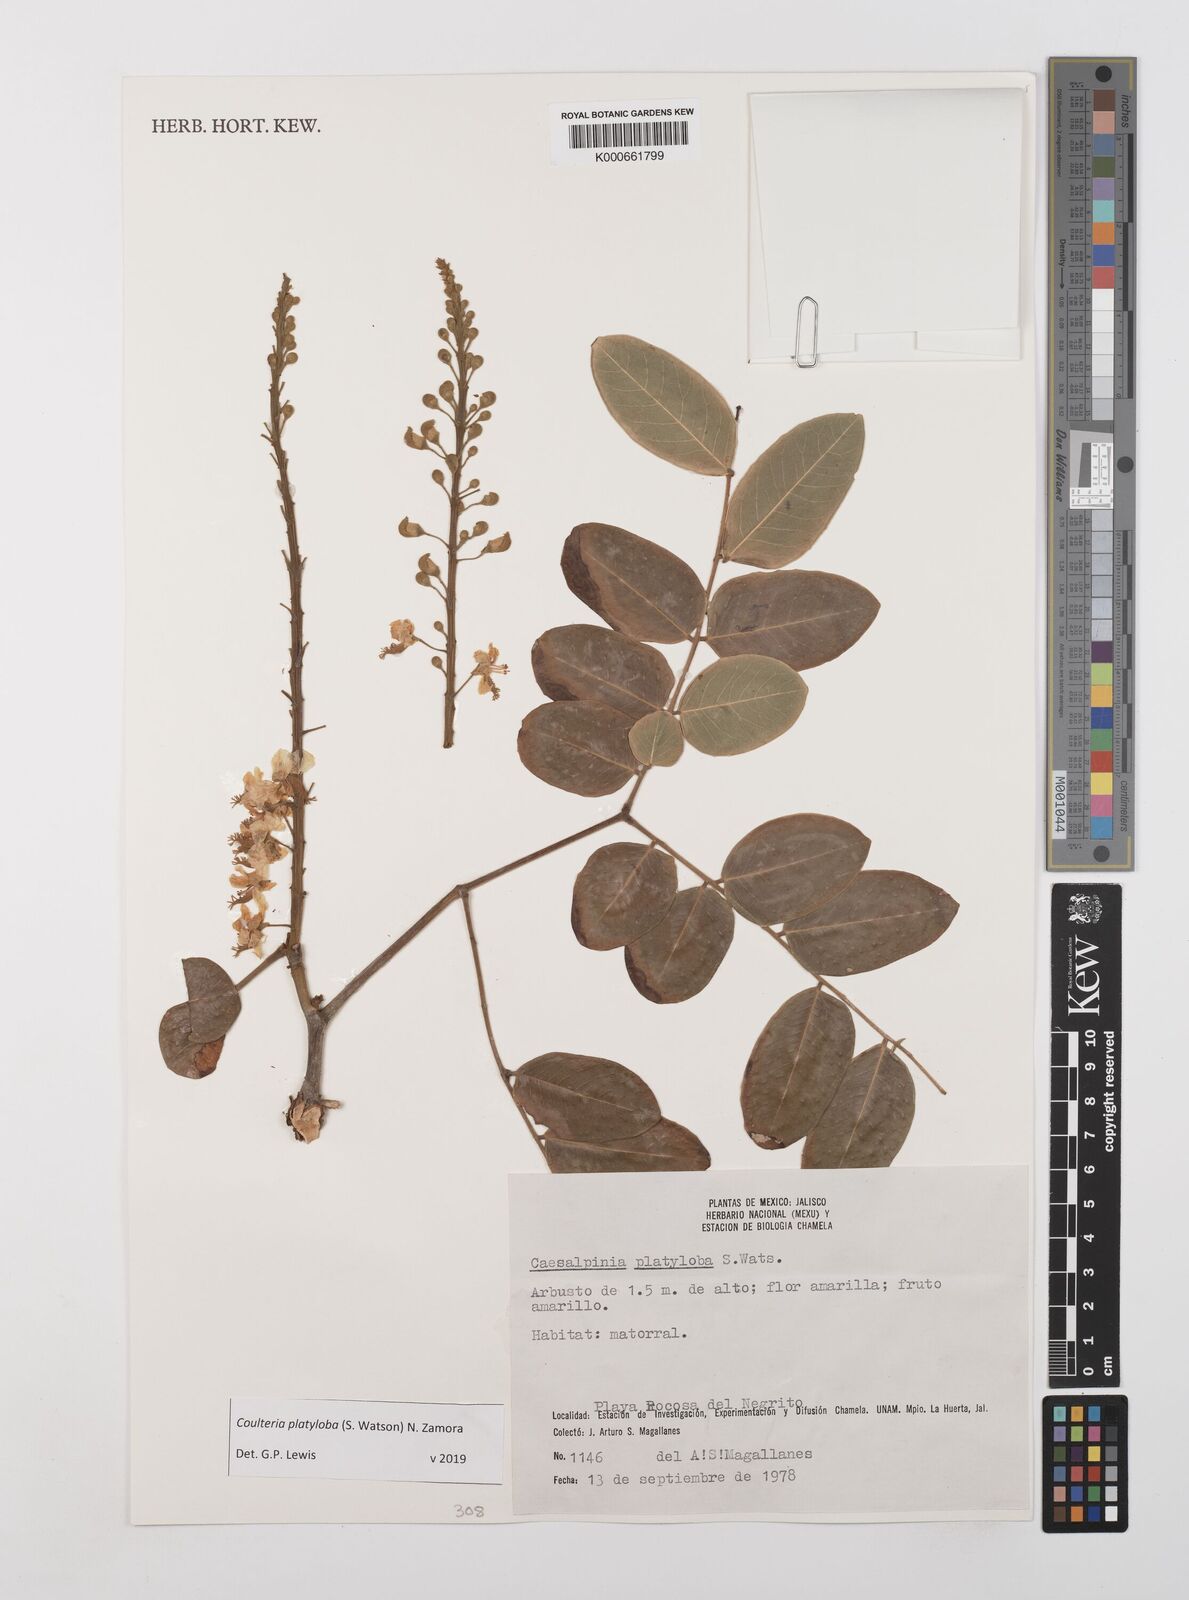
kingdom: Plantae
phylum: Tracheophyta
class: Magnoliopsida
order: Fabales
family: Fabaceae
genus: Coulteria
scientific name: Coulteria platyloba
